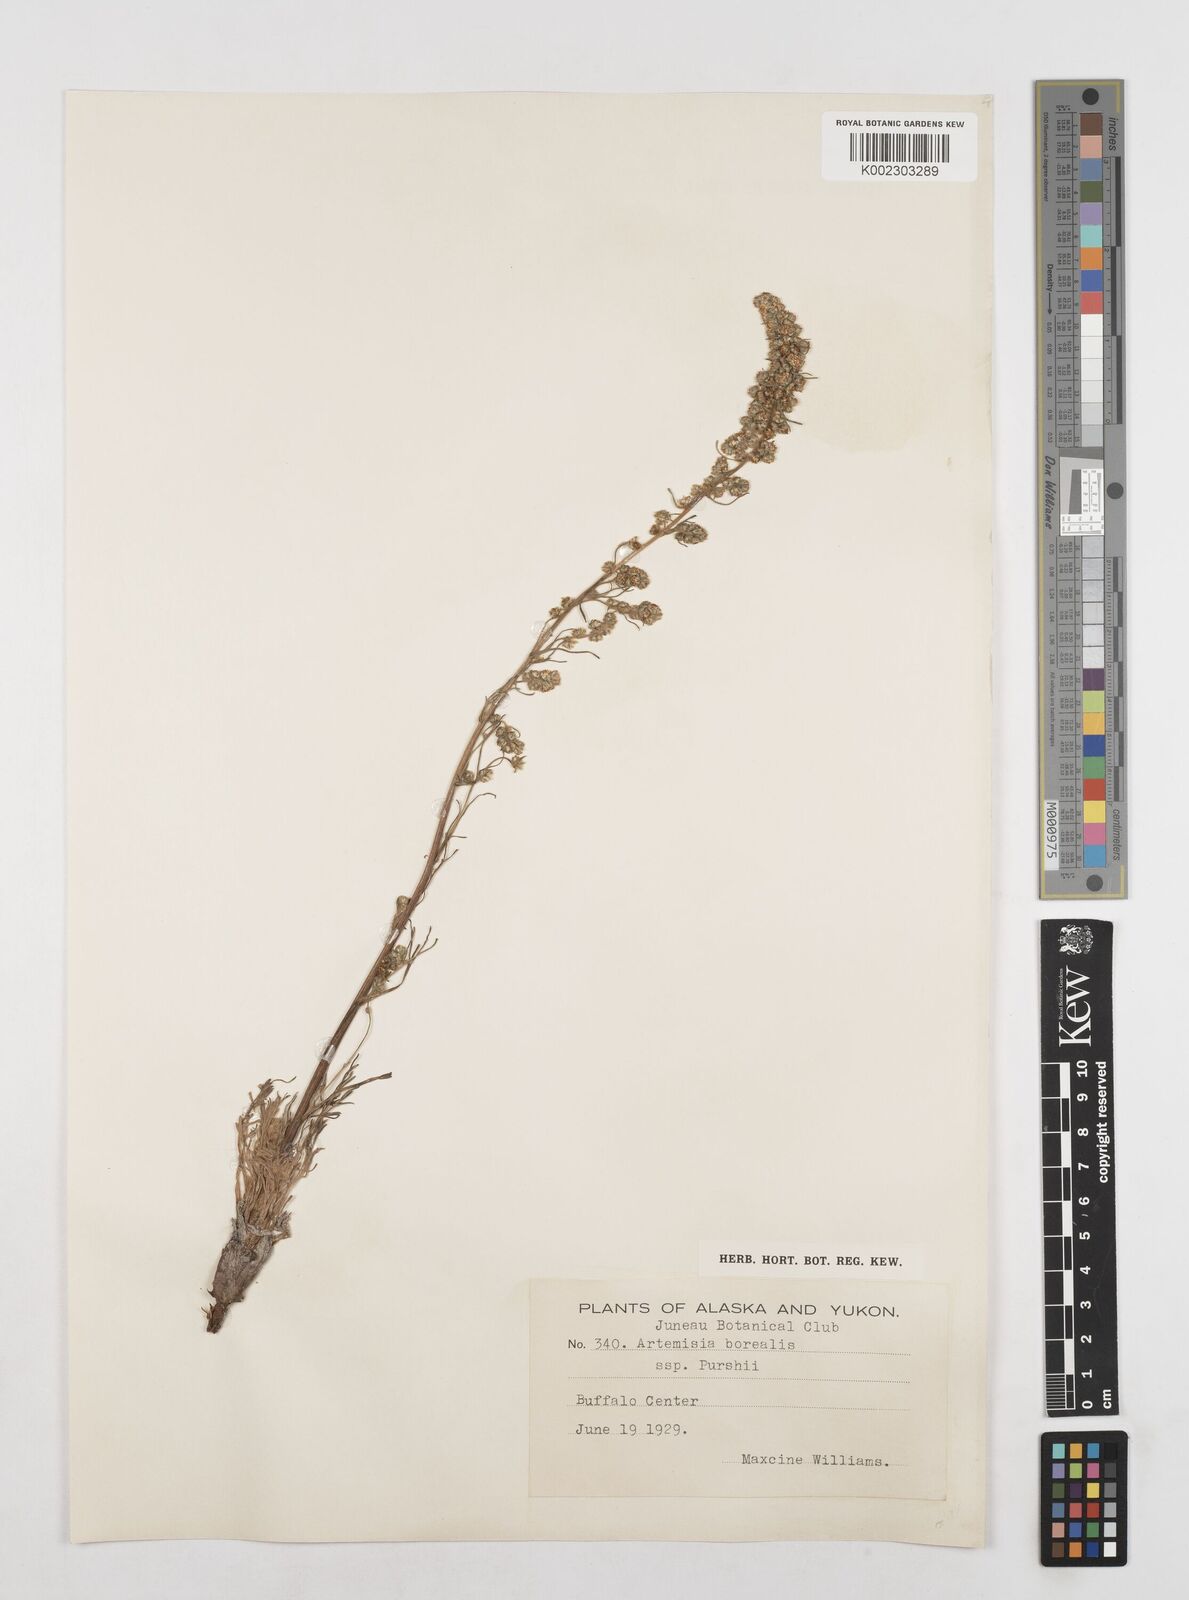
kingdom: Plantae
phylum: Tracheophyta
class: Magnoliopsida
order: Asterales
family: Asteraceae
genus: Artemisia
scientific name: Artemisia borealis
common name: Boreal sage
